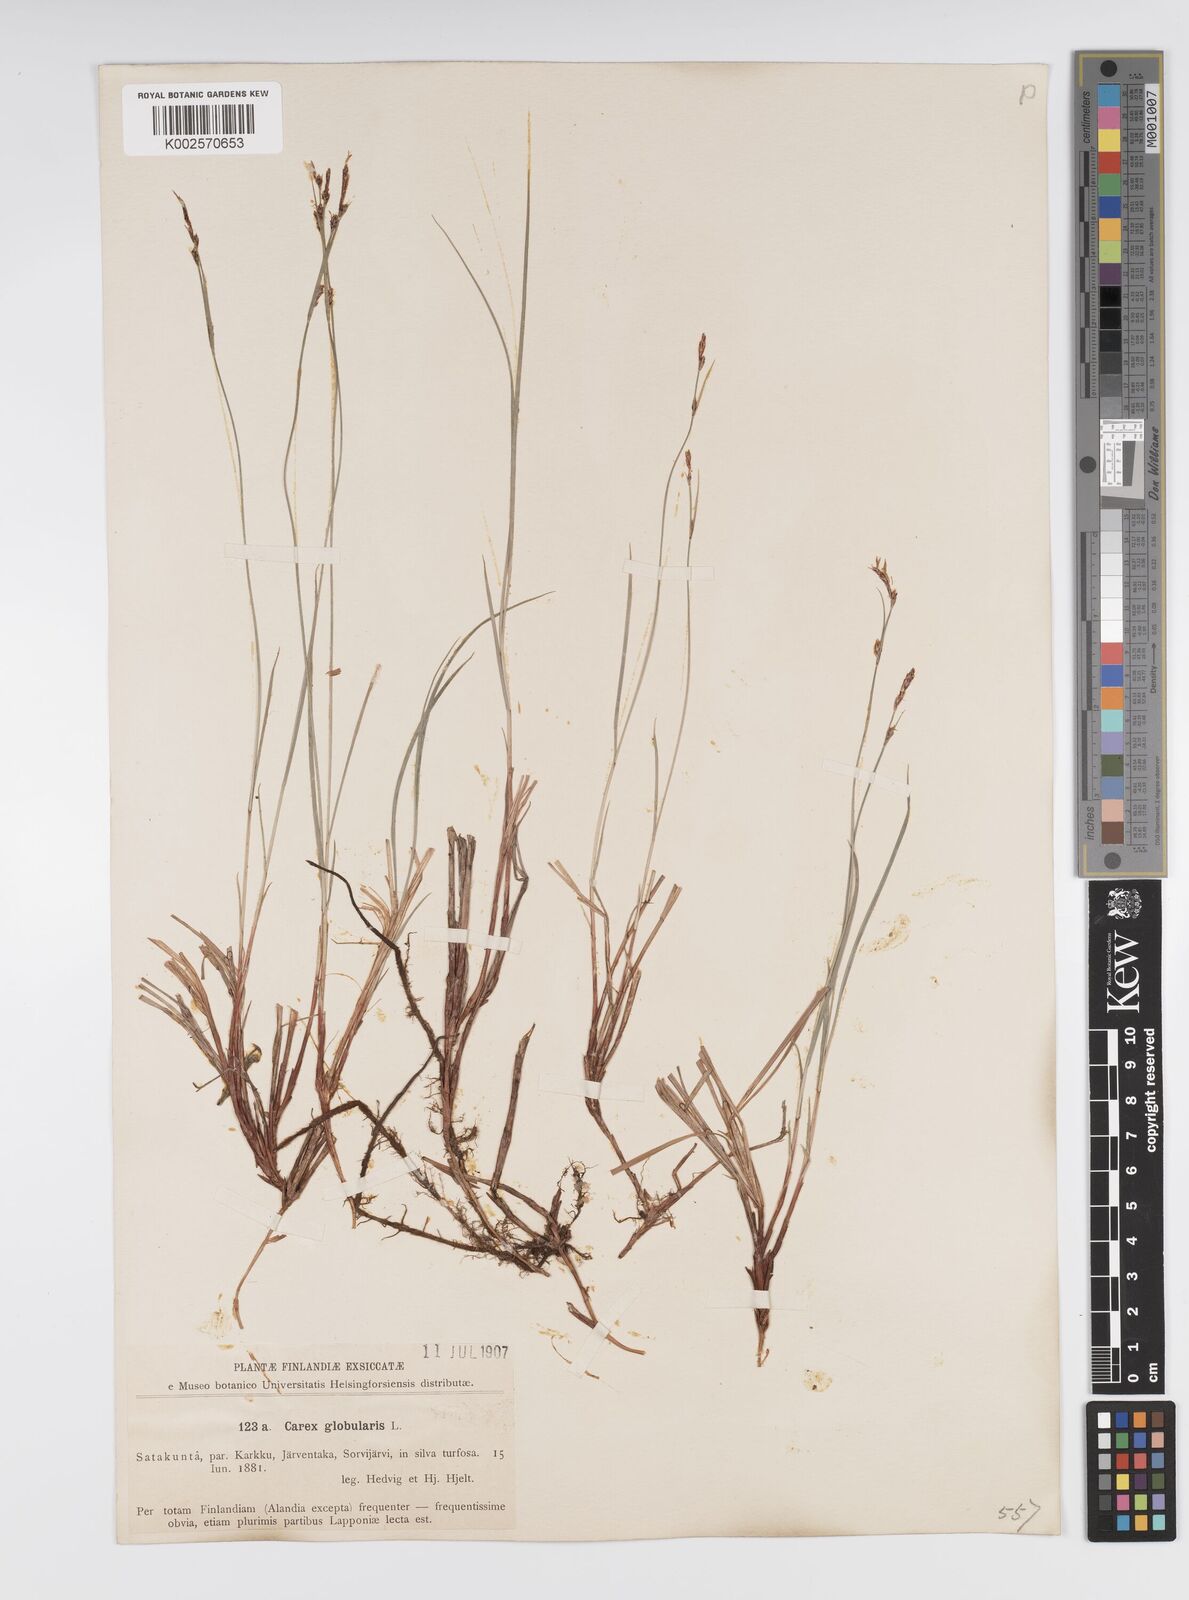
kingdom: Plantae
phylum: Tracheophyta
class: Liliopsida
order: Poales
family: Cyperaceae
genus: Carex
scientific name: Carex globularis
